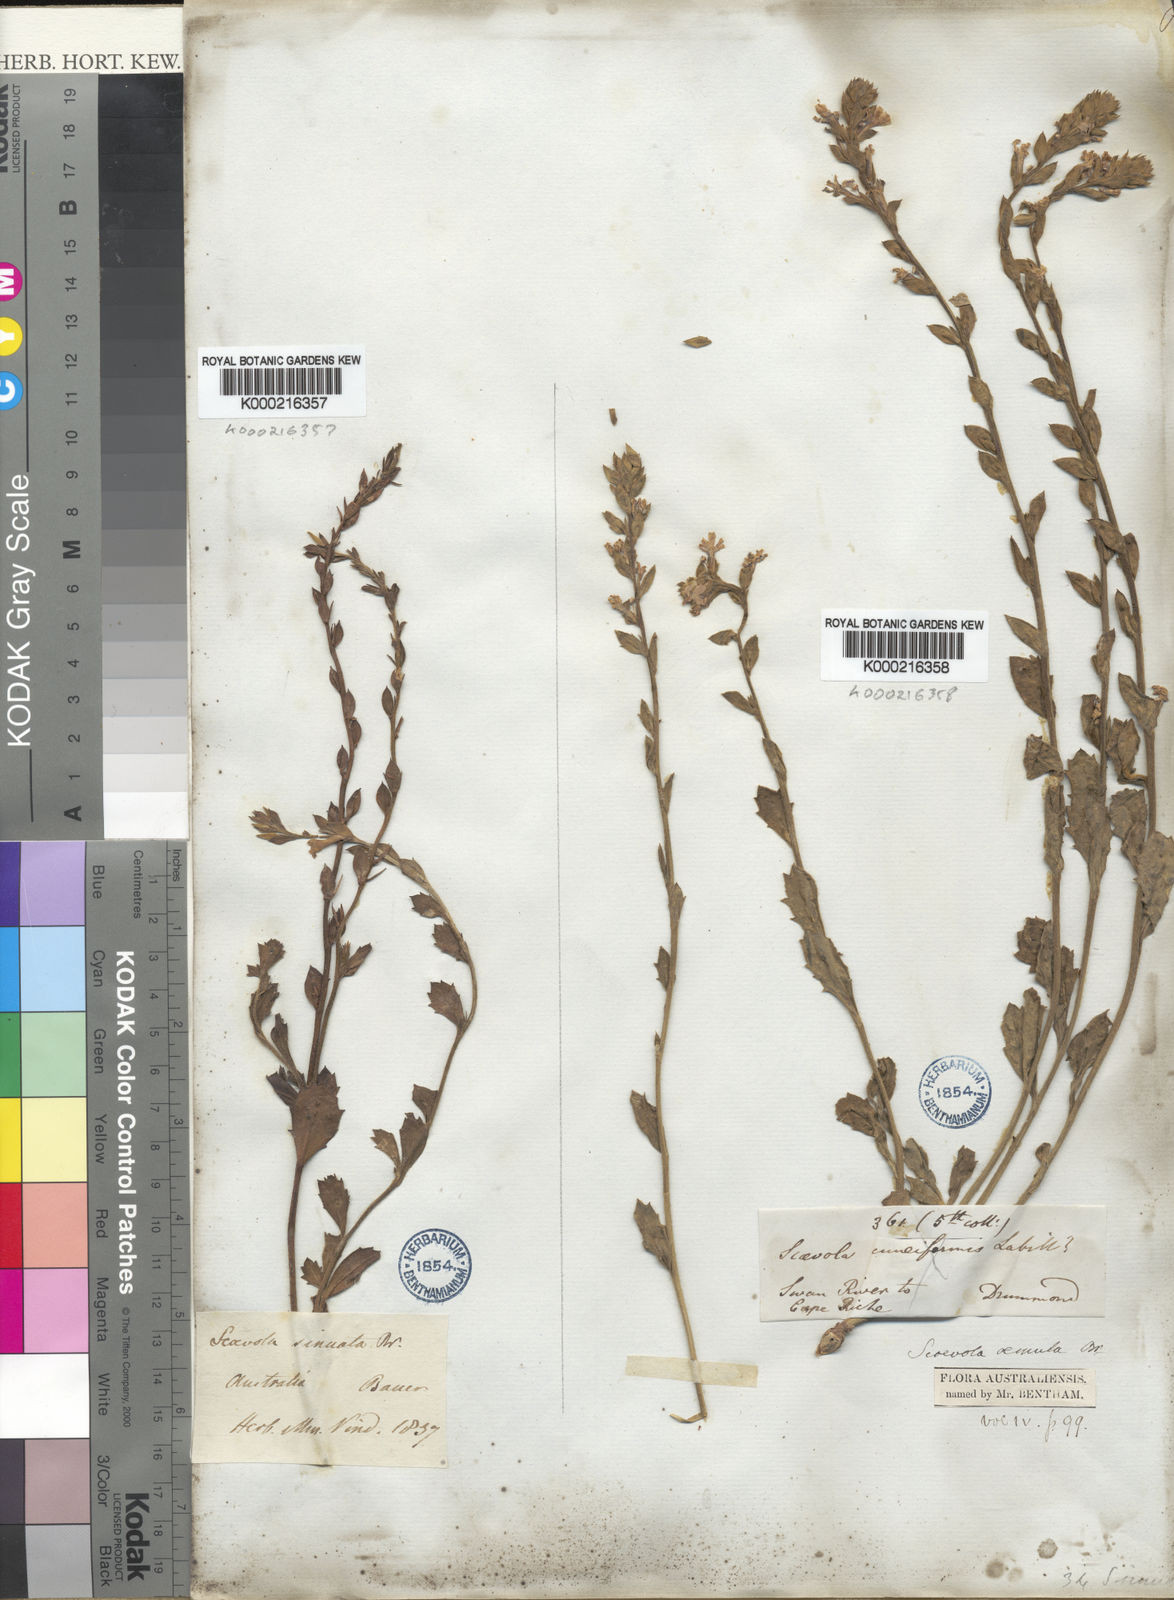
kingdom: Plantae
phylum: Tracheophyta
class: Magnoliopsida
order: Asterales
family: Goodeniaceae
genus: Scaevola
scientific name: Scaevola montana
